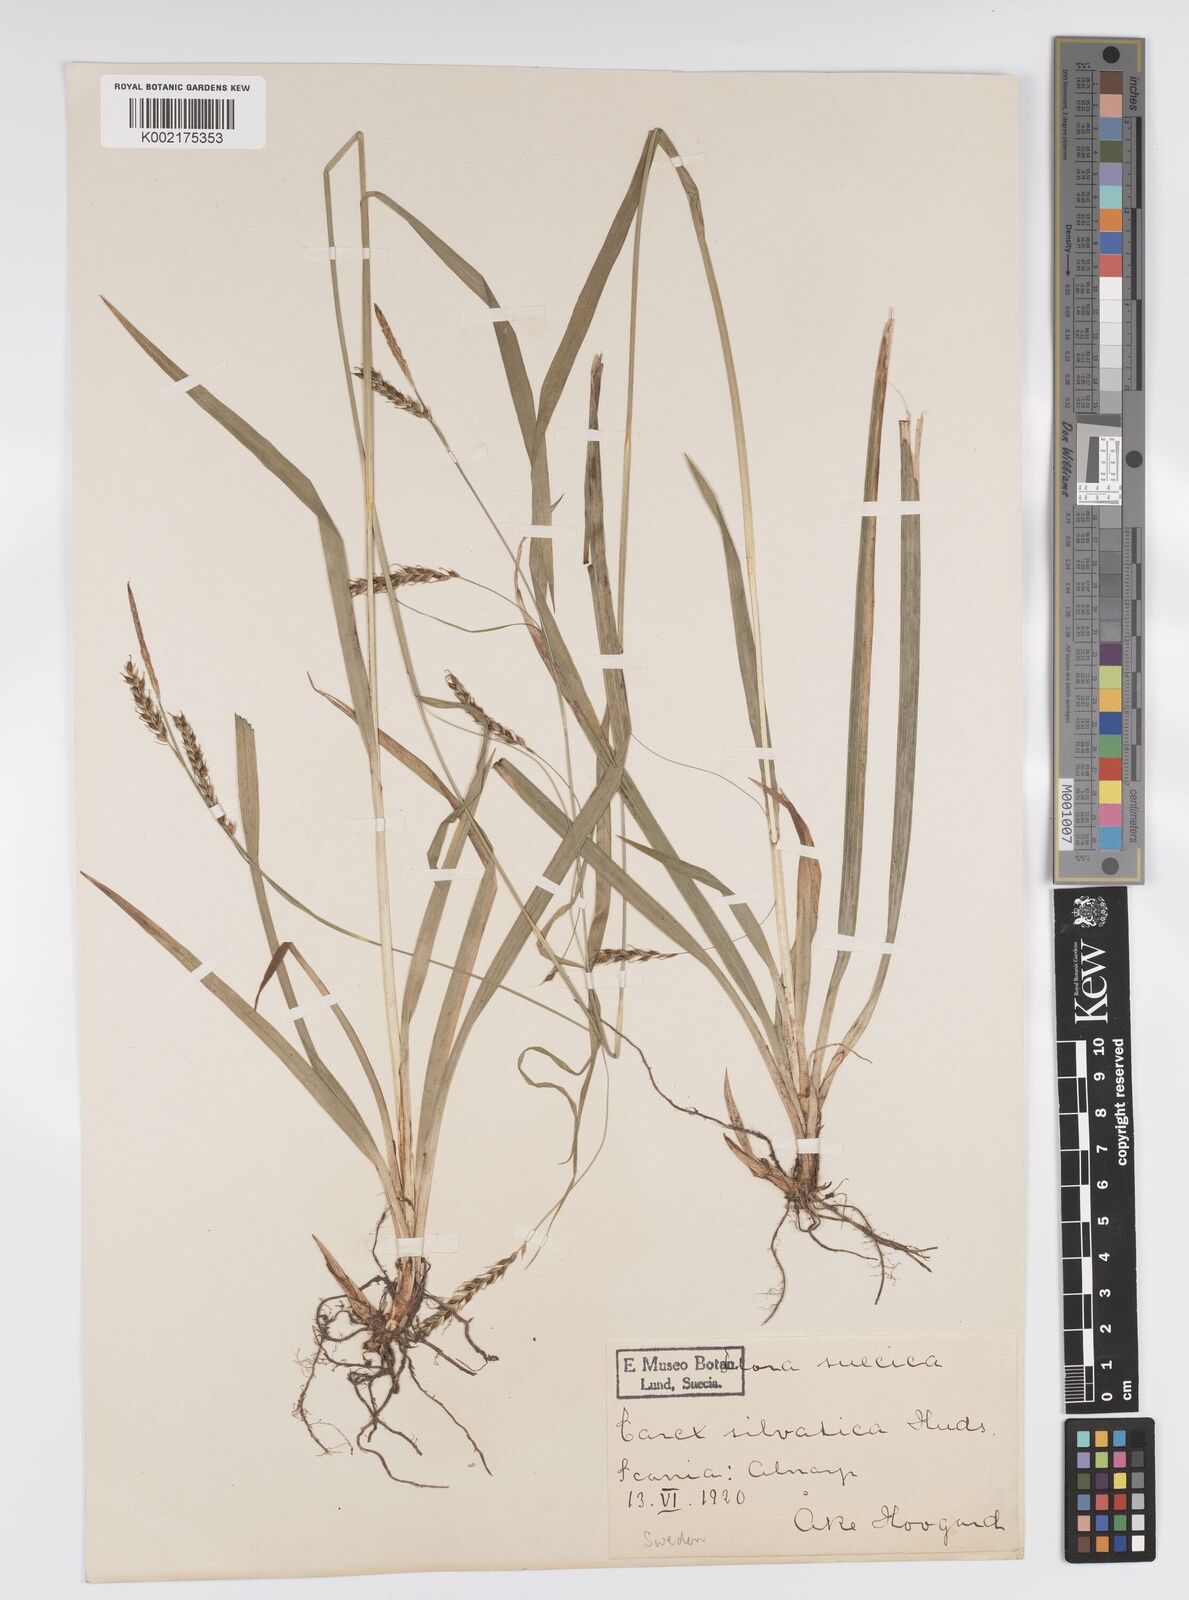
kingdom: Plantae
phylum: Tracheophyta
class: Liliopsida
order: Poales
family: Cyperaceae
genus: Carex
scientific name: Carex sylvatica
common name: Wood-sedge
